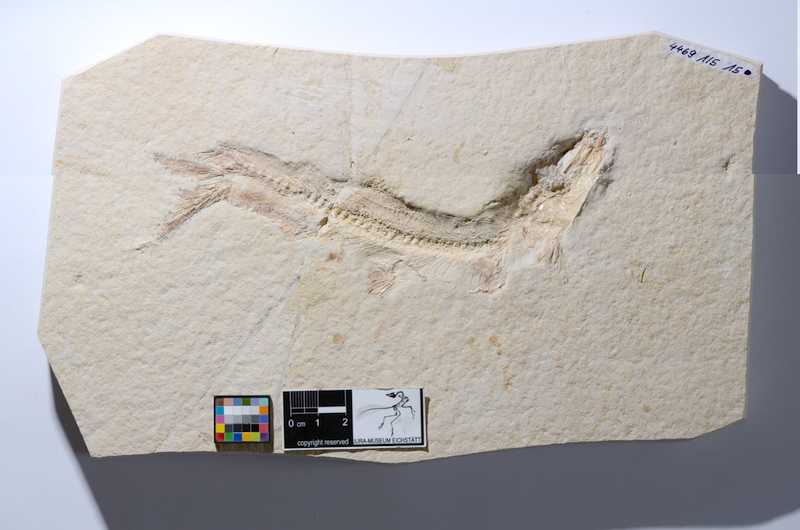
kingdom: Animalia
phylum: Chordata
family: Ascalaboidae
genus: Tharsis
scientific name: Tharsis dubius
